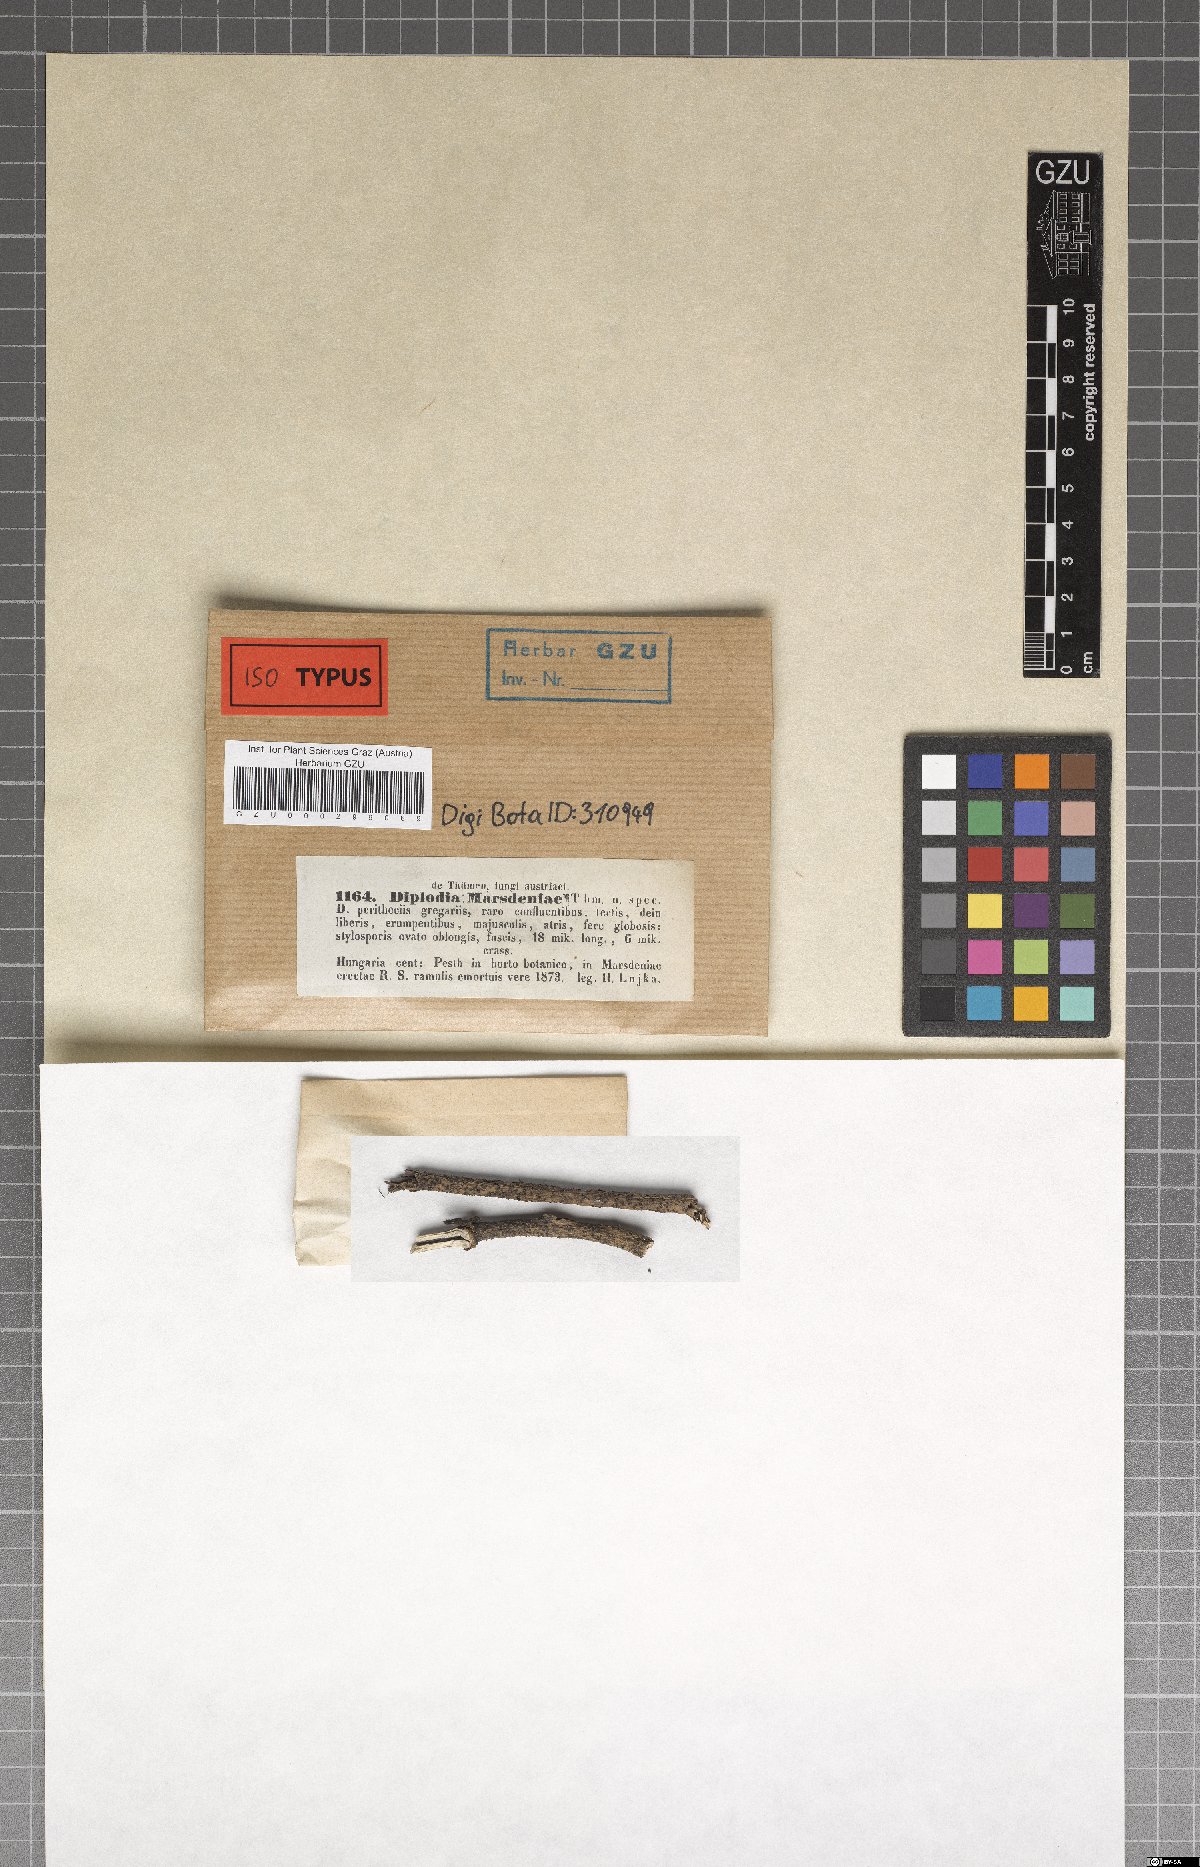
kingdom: Fungi
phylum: Ascomycota
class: Dothideomycetes
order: Botryosphaeriales
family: Botryosphaeriaceae
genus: Diplodia
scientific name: Diplodia
